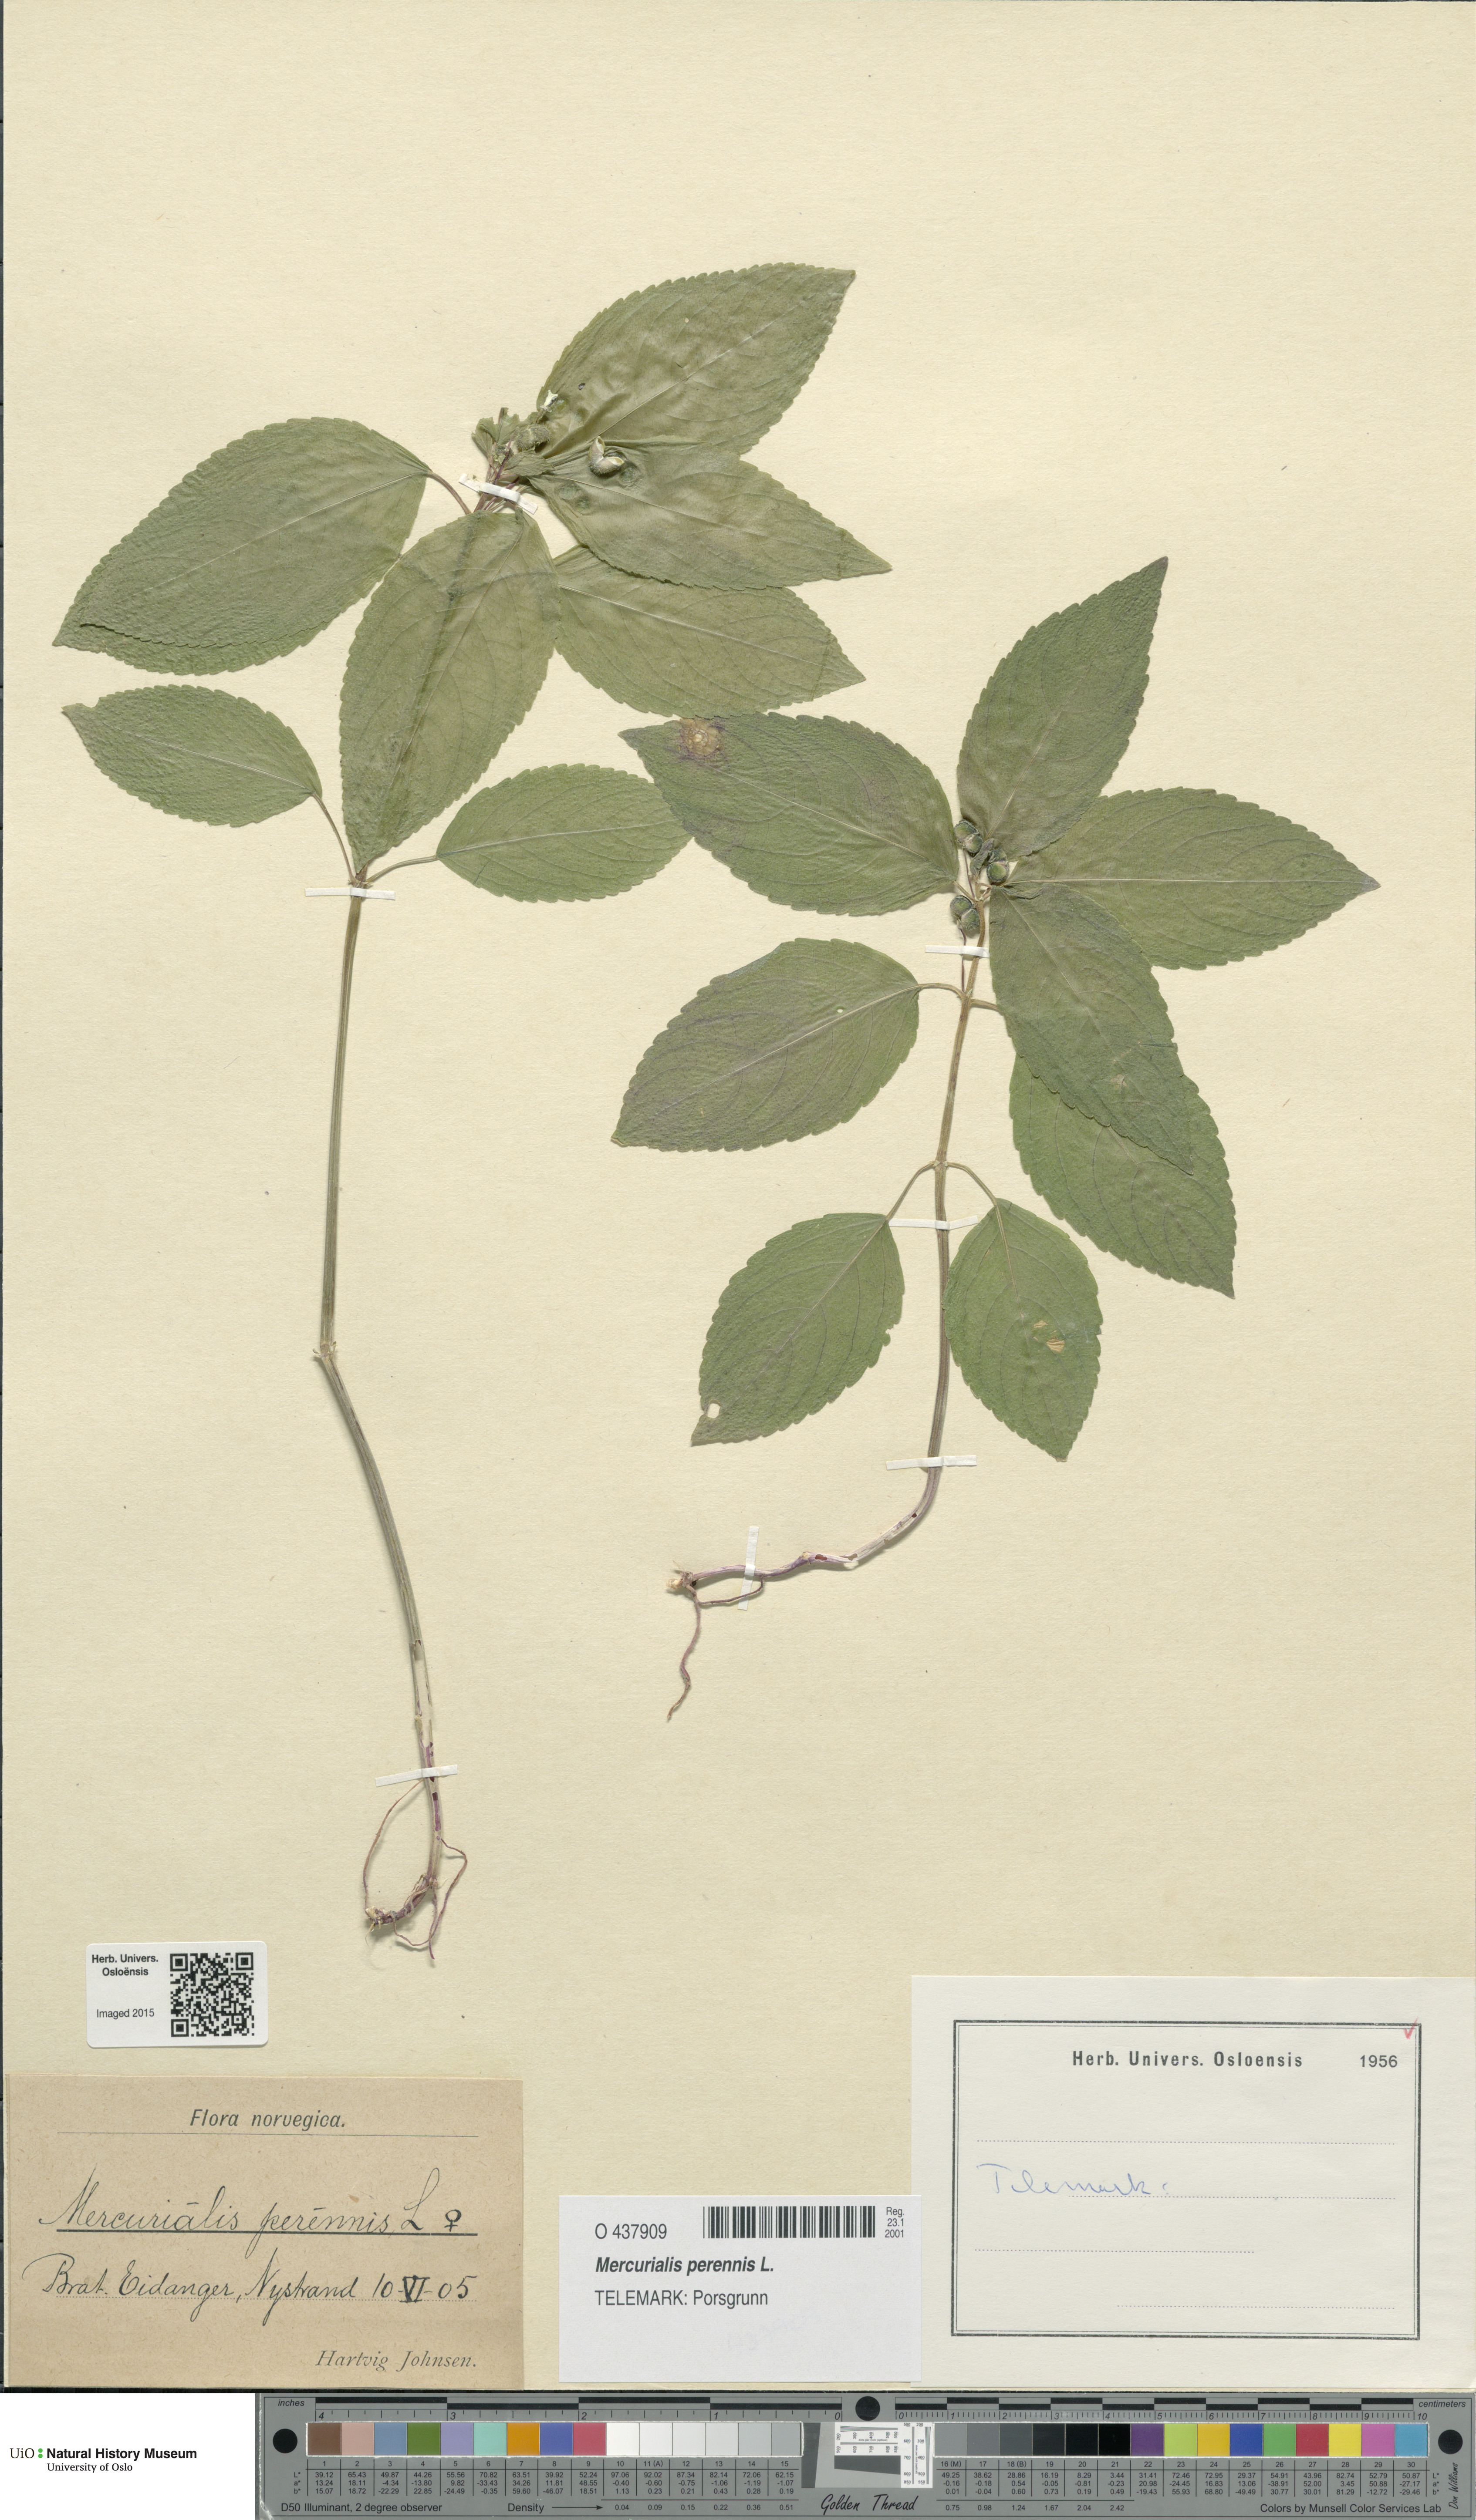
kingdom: Plantae
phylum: Tracheophyta
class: Magnoliopsida
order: Malpighiales
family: Euphorbiaceae
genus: Mercurialis
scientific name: Mercurialis perennis
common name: Dog mercury
